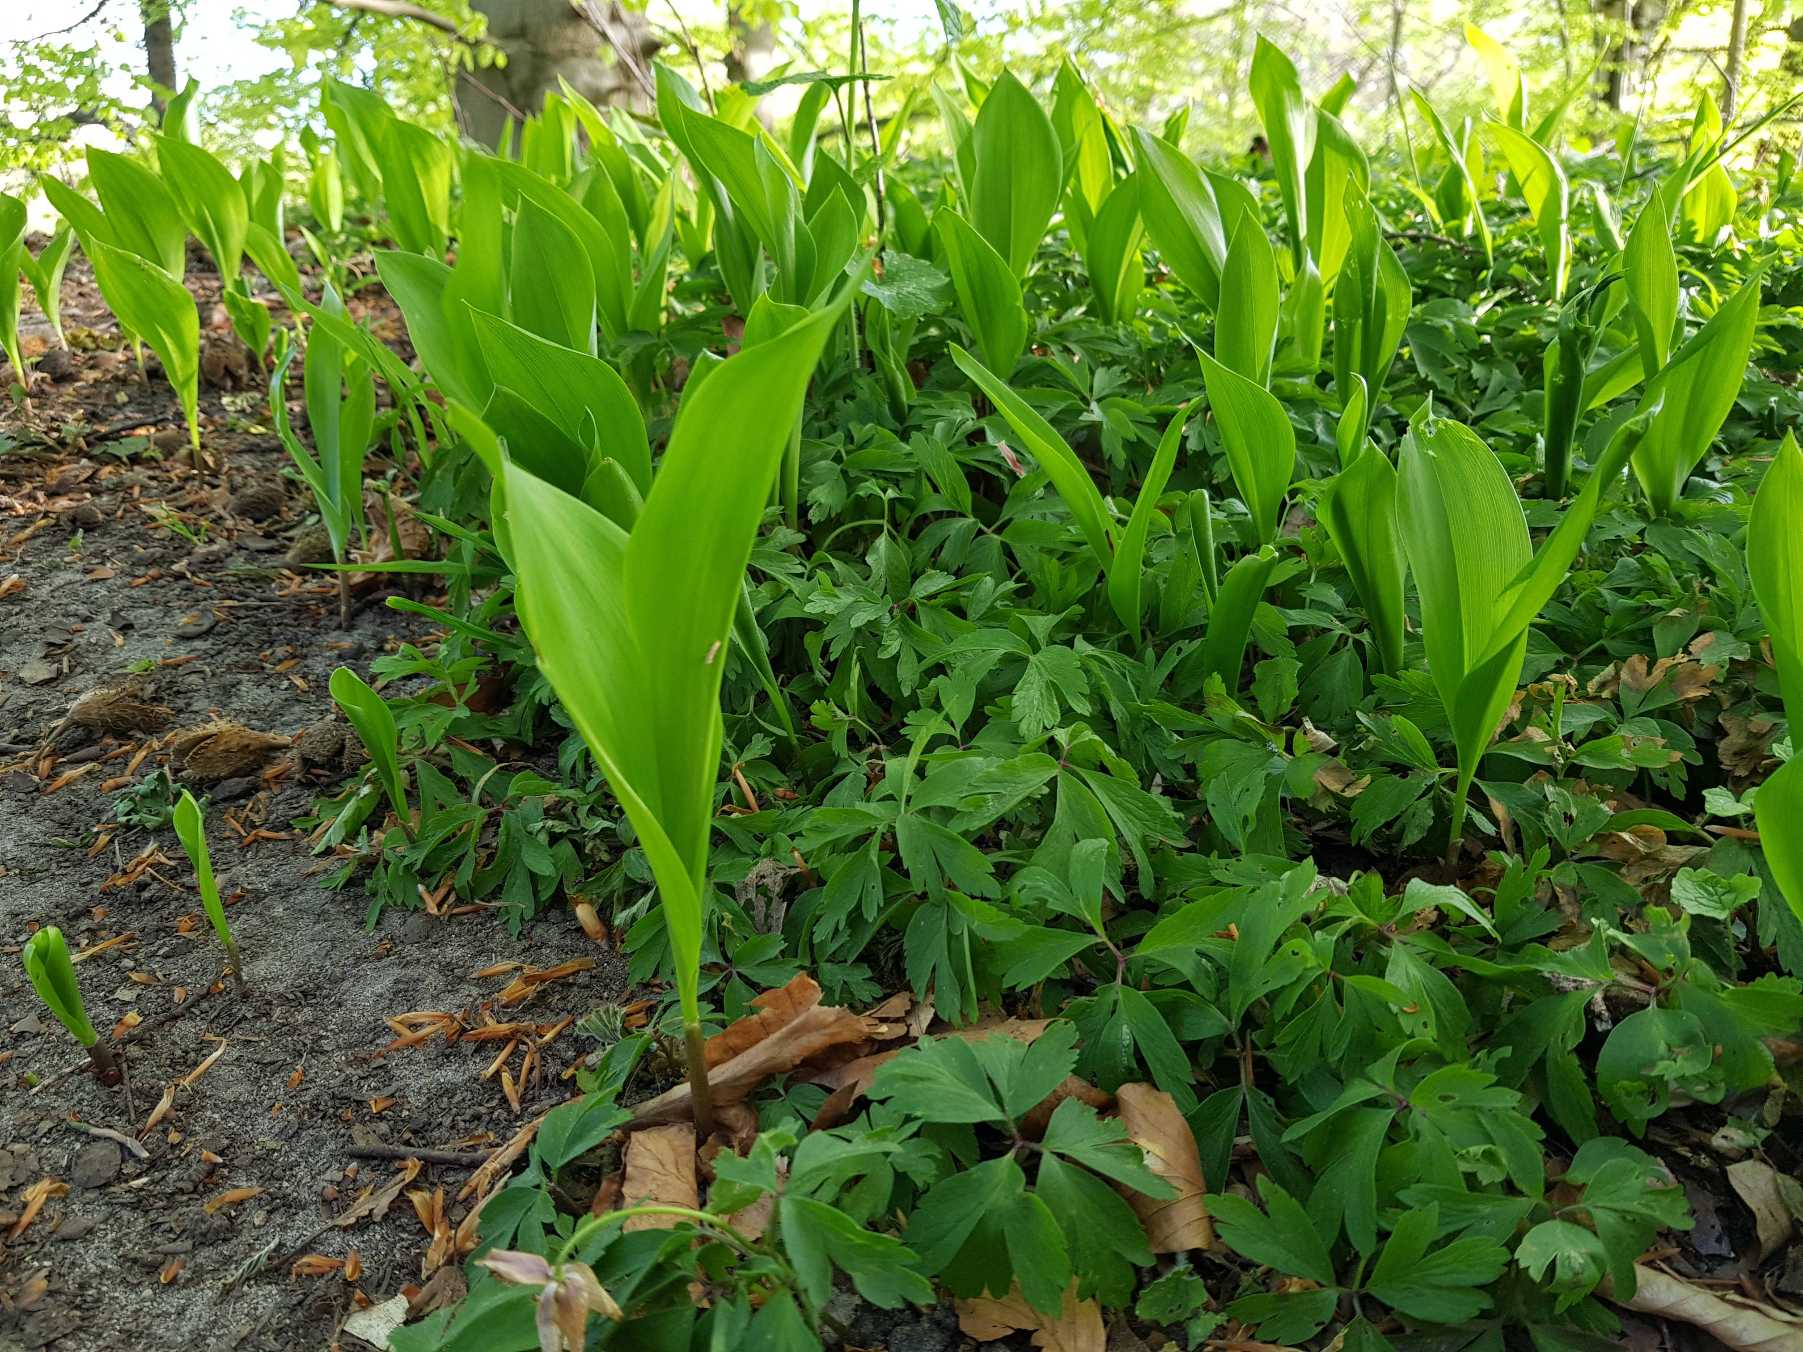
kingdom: Plantae
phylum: Tracheophyta
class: Liliopsida
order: Asparagales
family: Asparagaceae
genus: Convallaria
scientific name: Convallaria majalis
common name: Liljekonval
